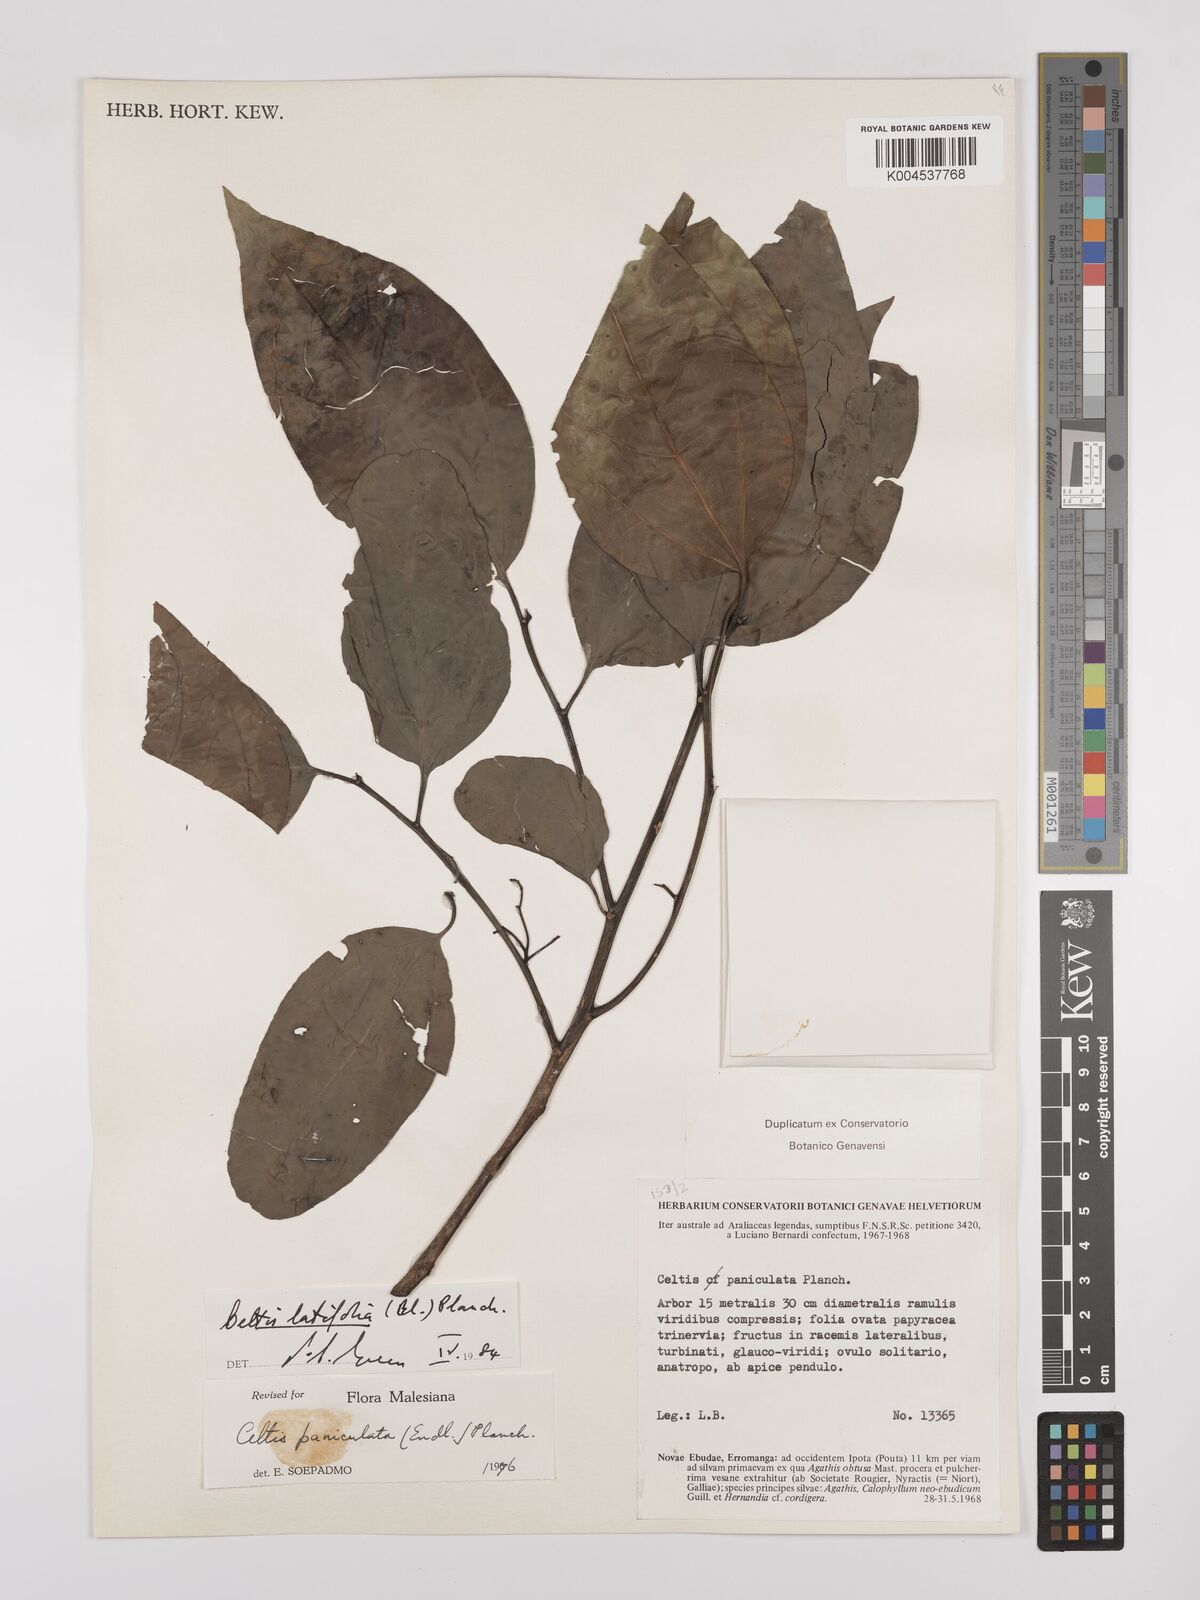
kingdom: Plantae
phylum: Tracheophyta
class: Magnoliopsida
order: Rosales
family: Cannabaceae
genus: Celtis
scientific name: Celtis latifolia
